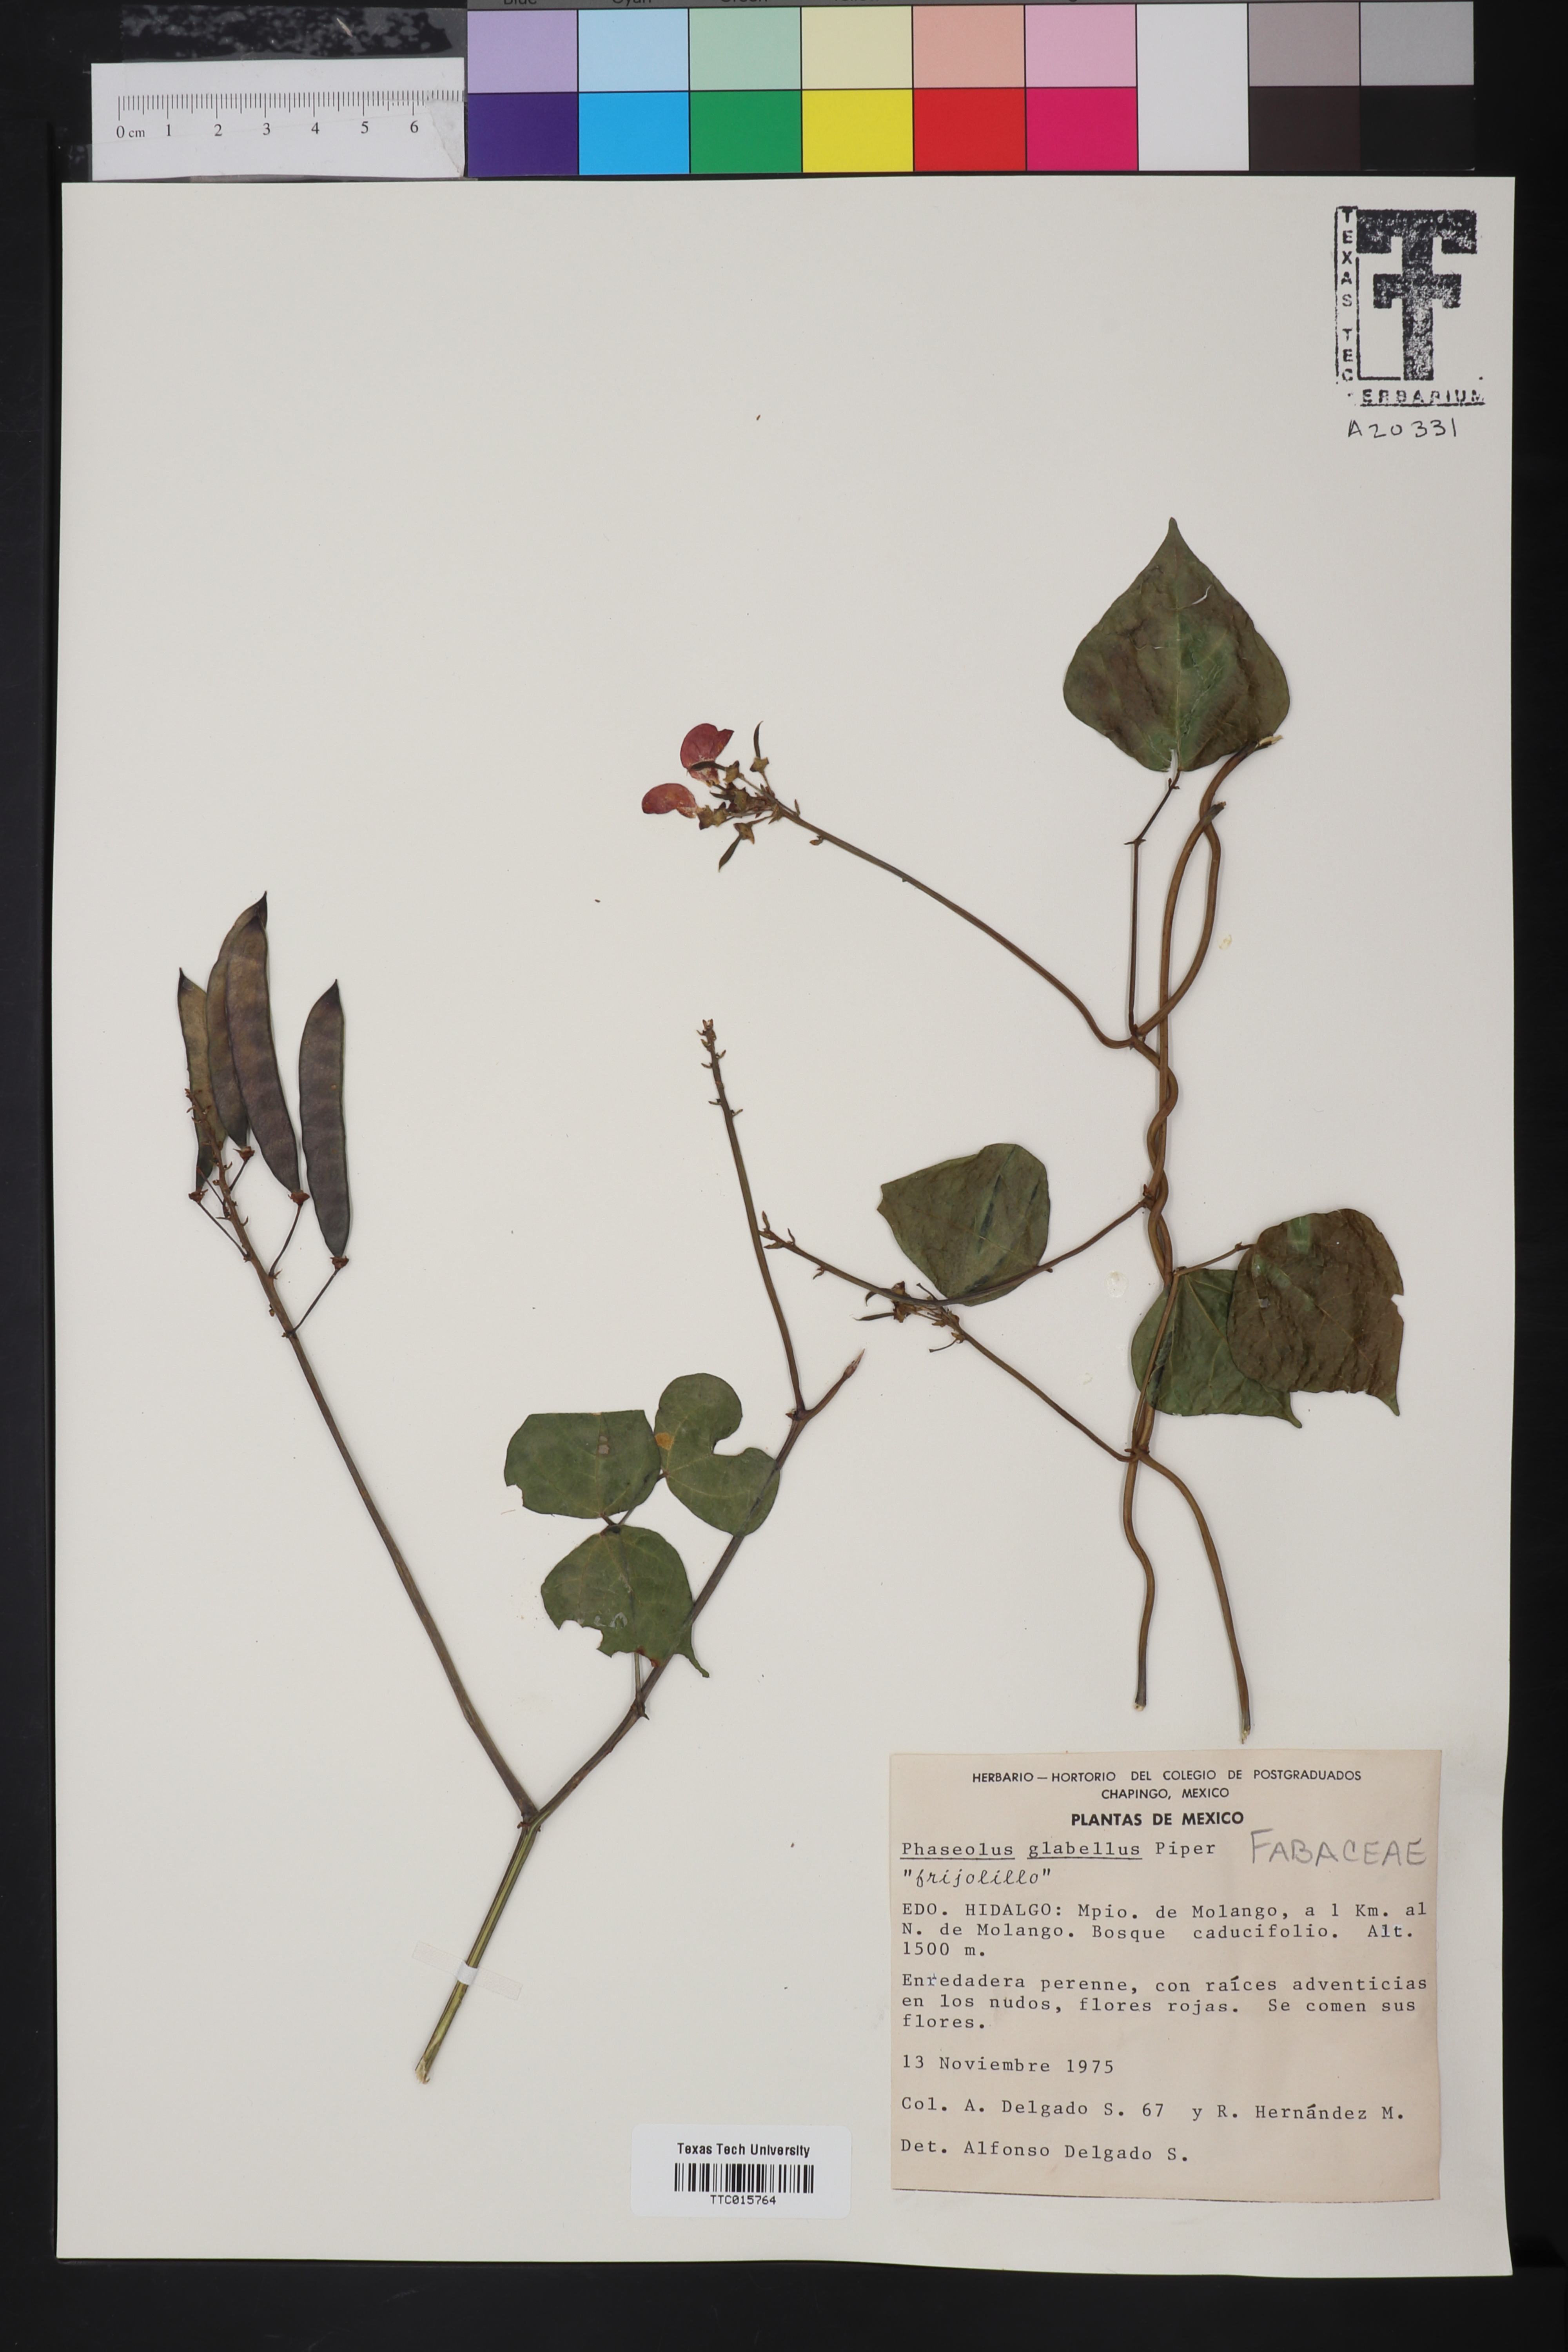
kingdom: Plantae
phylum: Tracheophyta
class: Magnoliopsida
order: Fabales
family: Fabaceae
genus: Phaseolus
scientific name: Phaseolus pedicellatus
